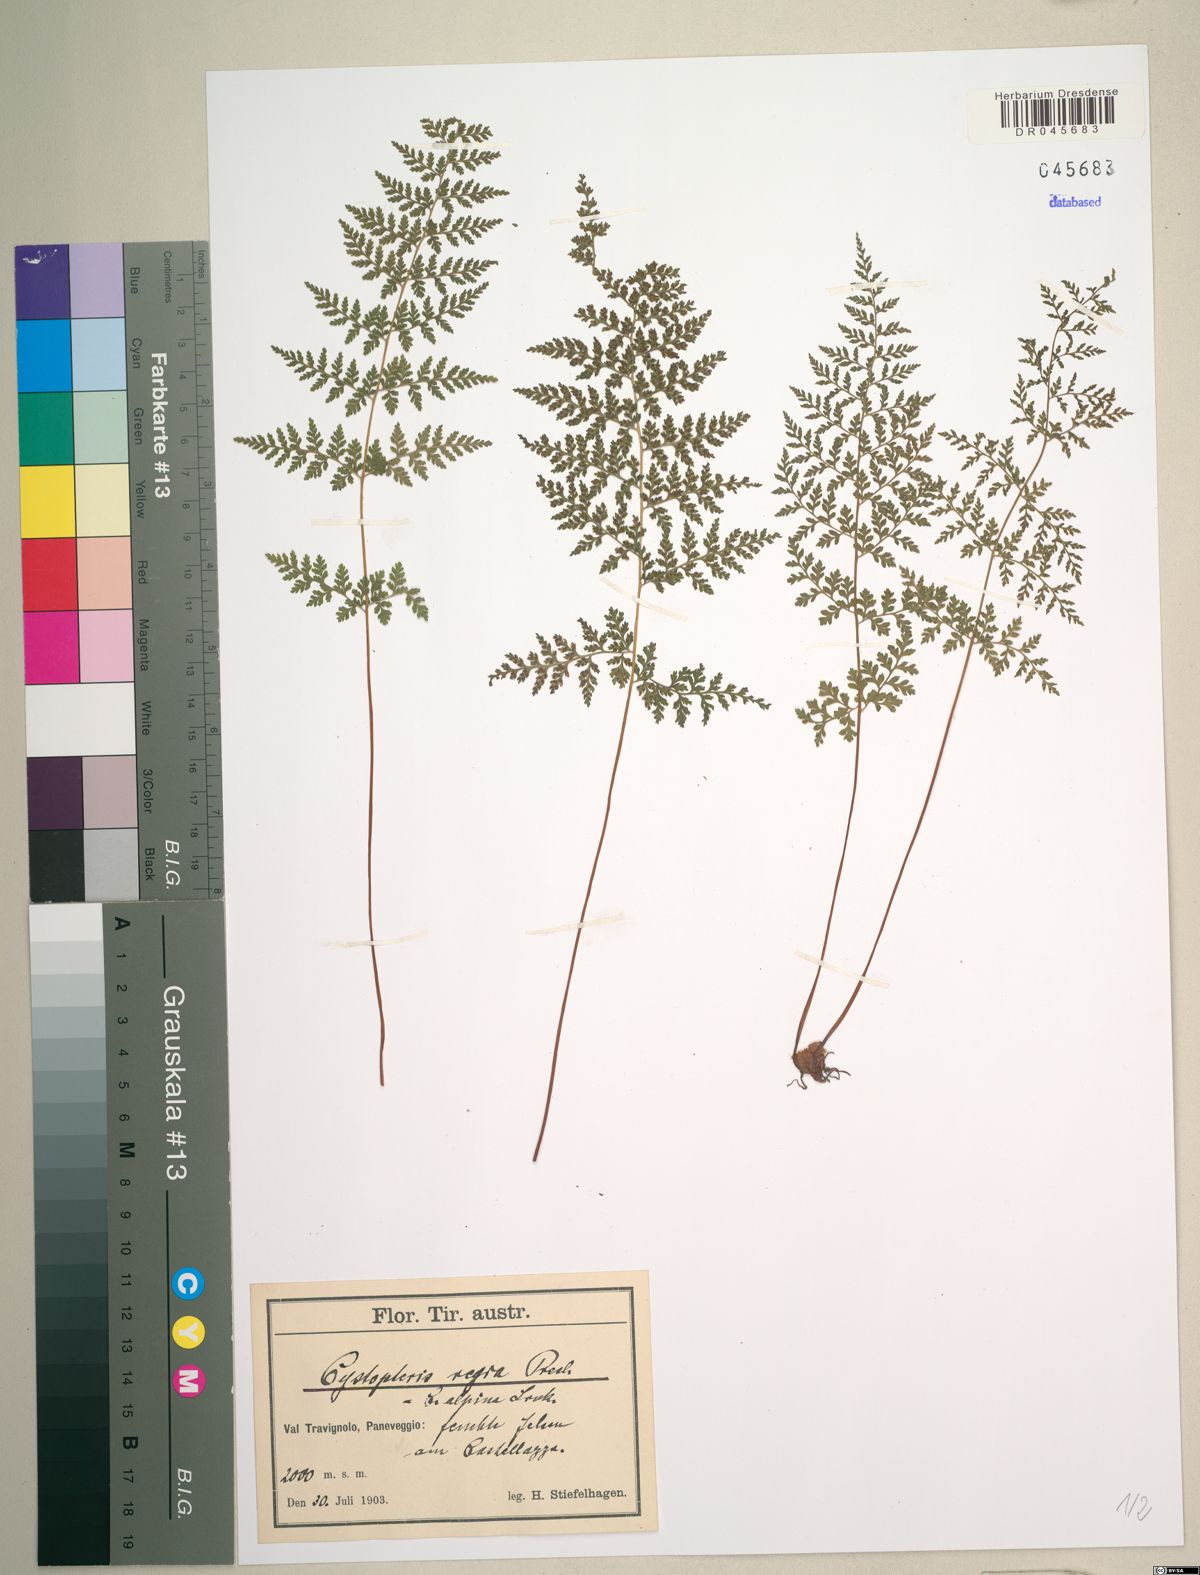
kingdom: Plantae
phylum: Tracheophyta
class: Polypodiopsida
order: Polypodiales
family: Cystopteridaceae
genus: Cystopteris
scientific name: Cystopteris alpina
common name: Alpine bladder-fern
